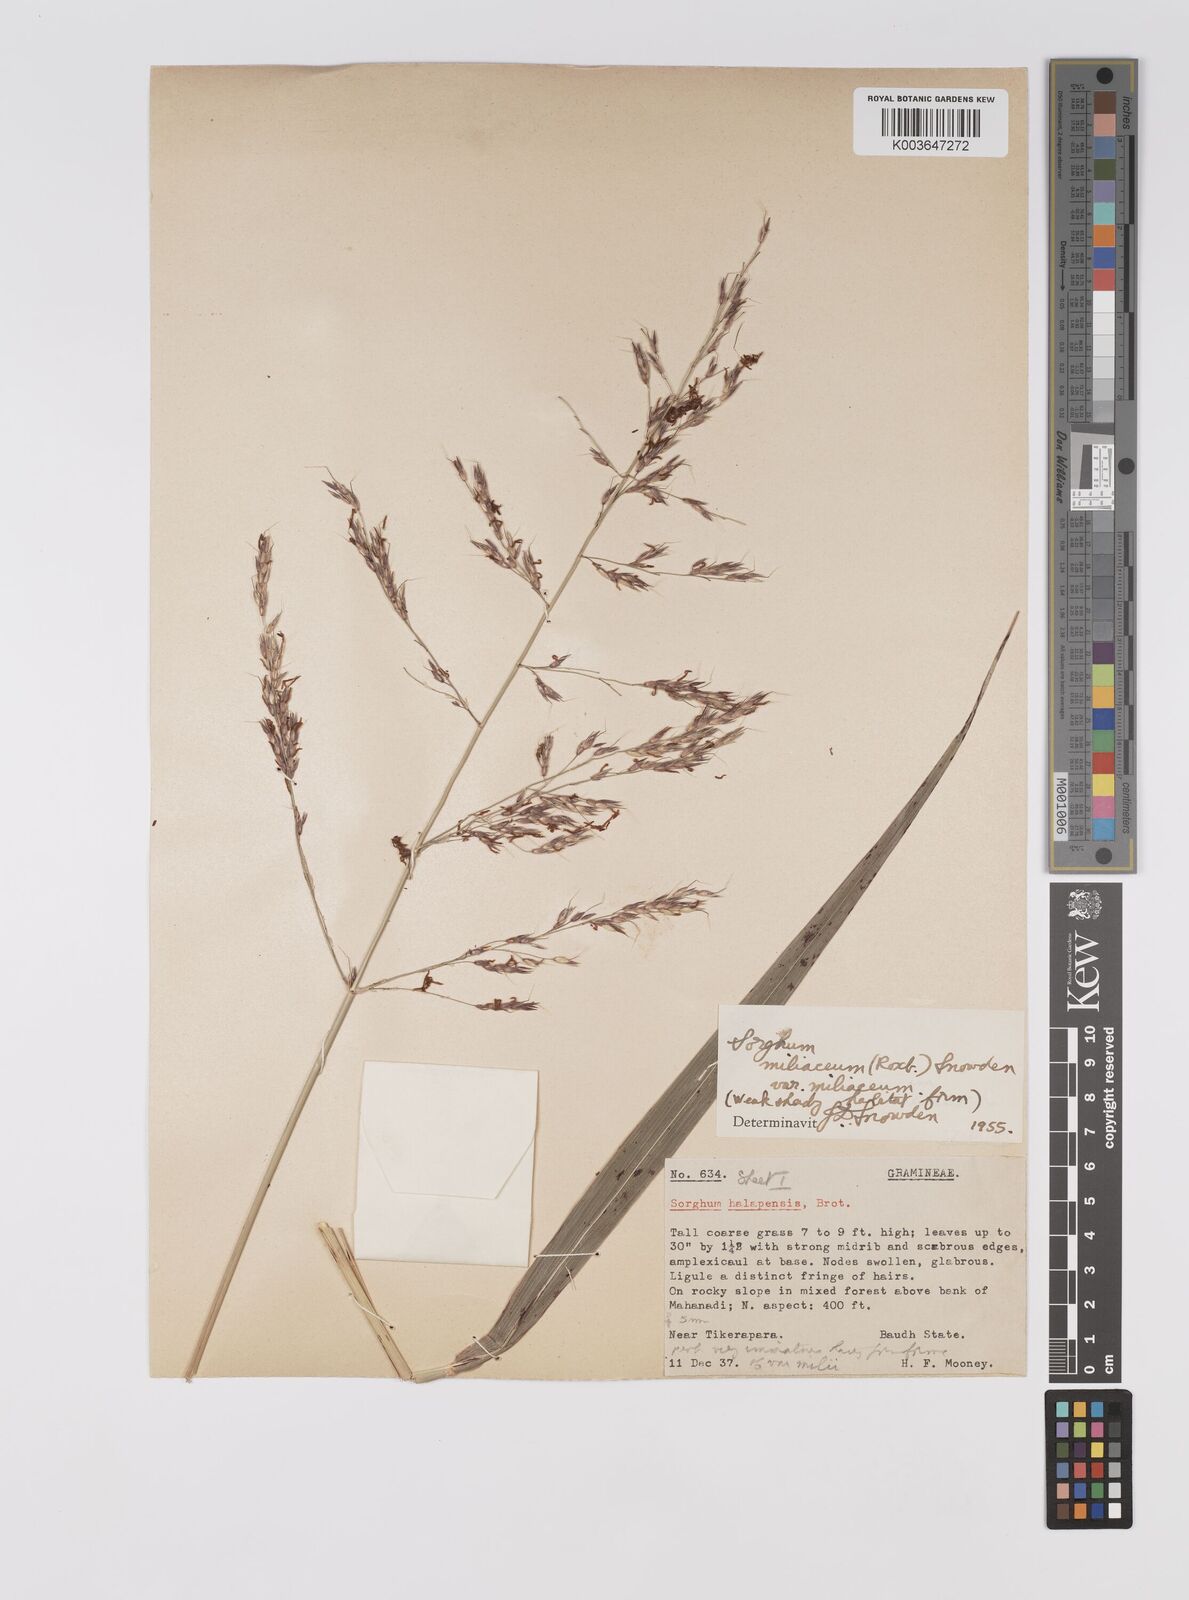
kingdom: Plantae
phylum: Tracheophyta
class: Liliopsida
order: Poales
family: Poaceae
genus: Sorghum
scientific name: Sorghum halepense
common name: Johnson-grass
